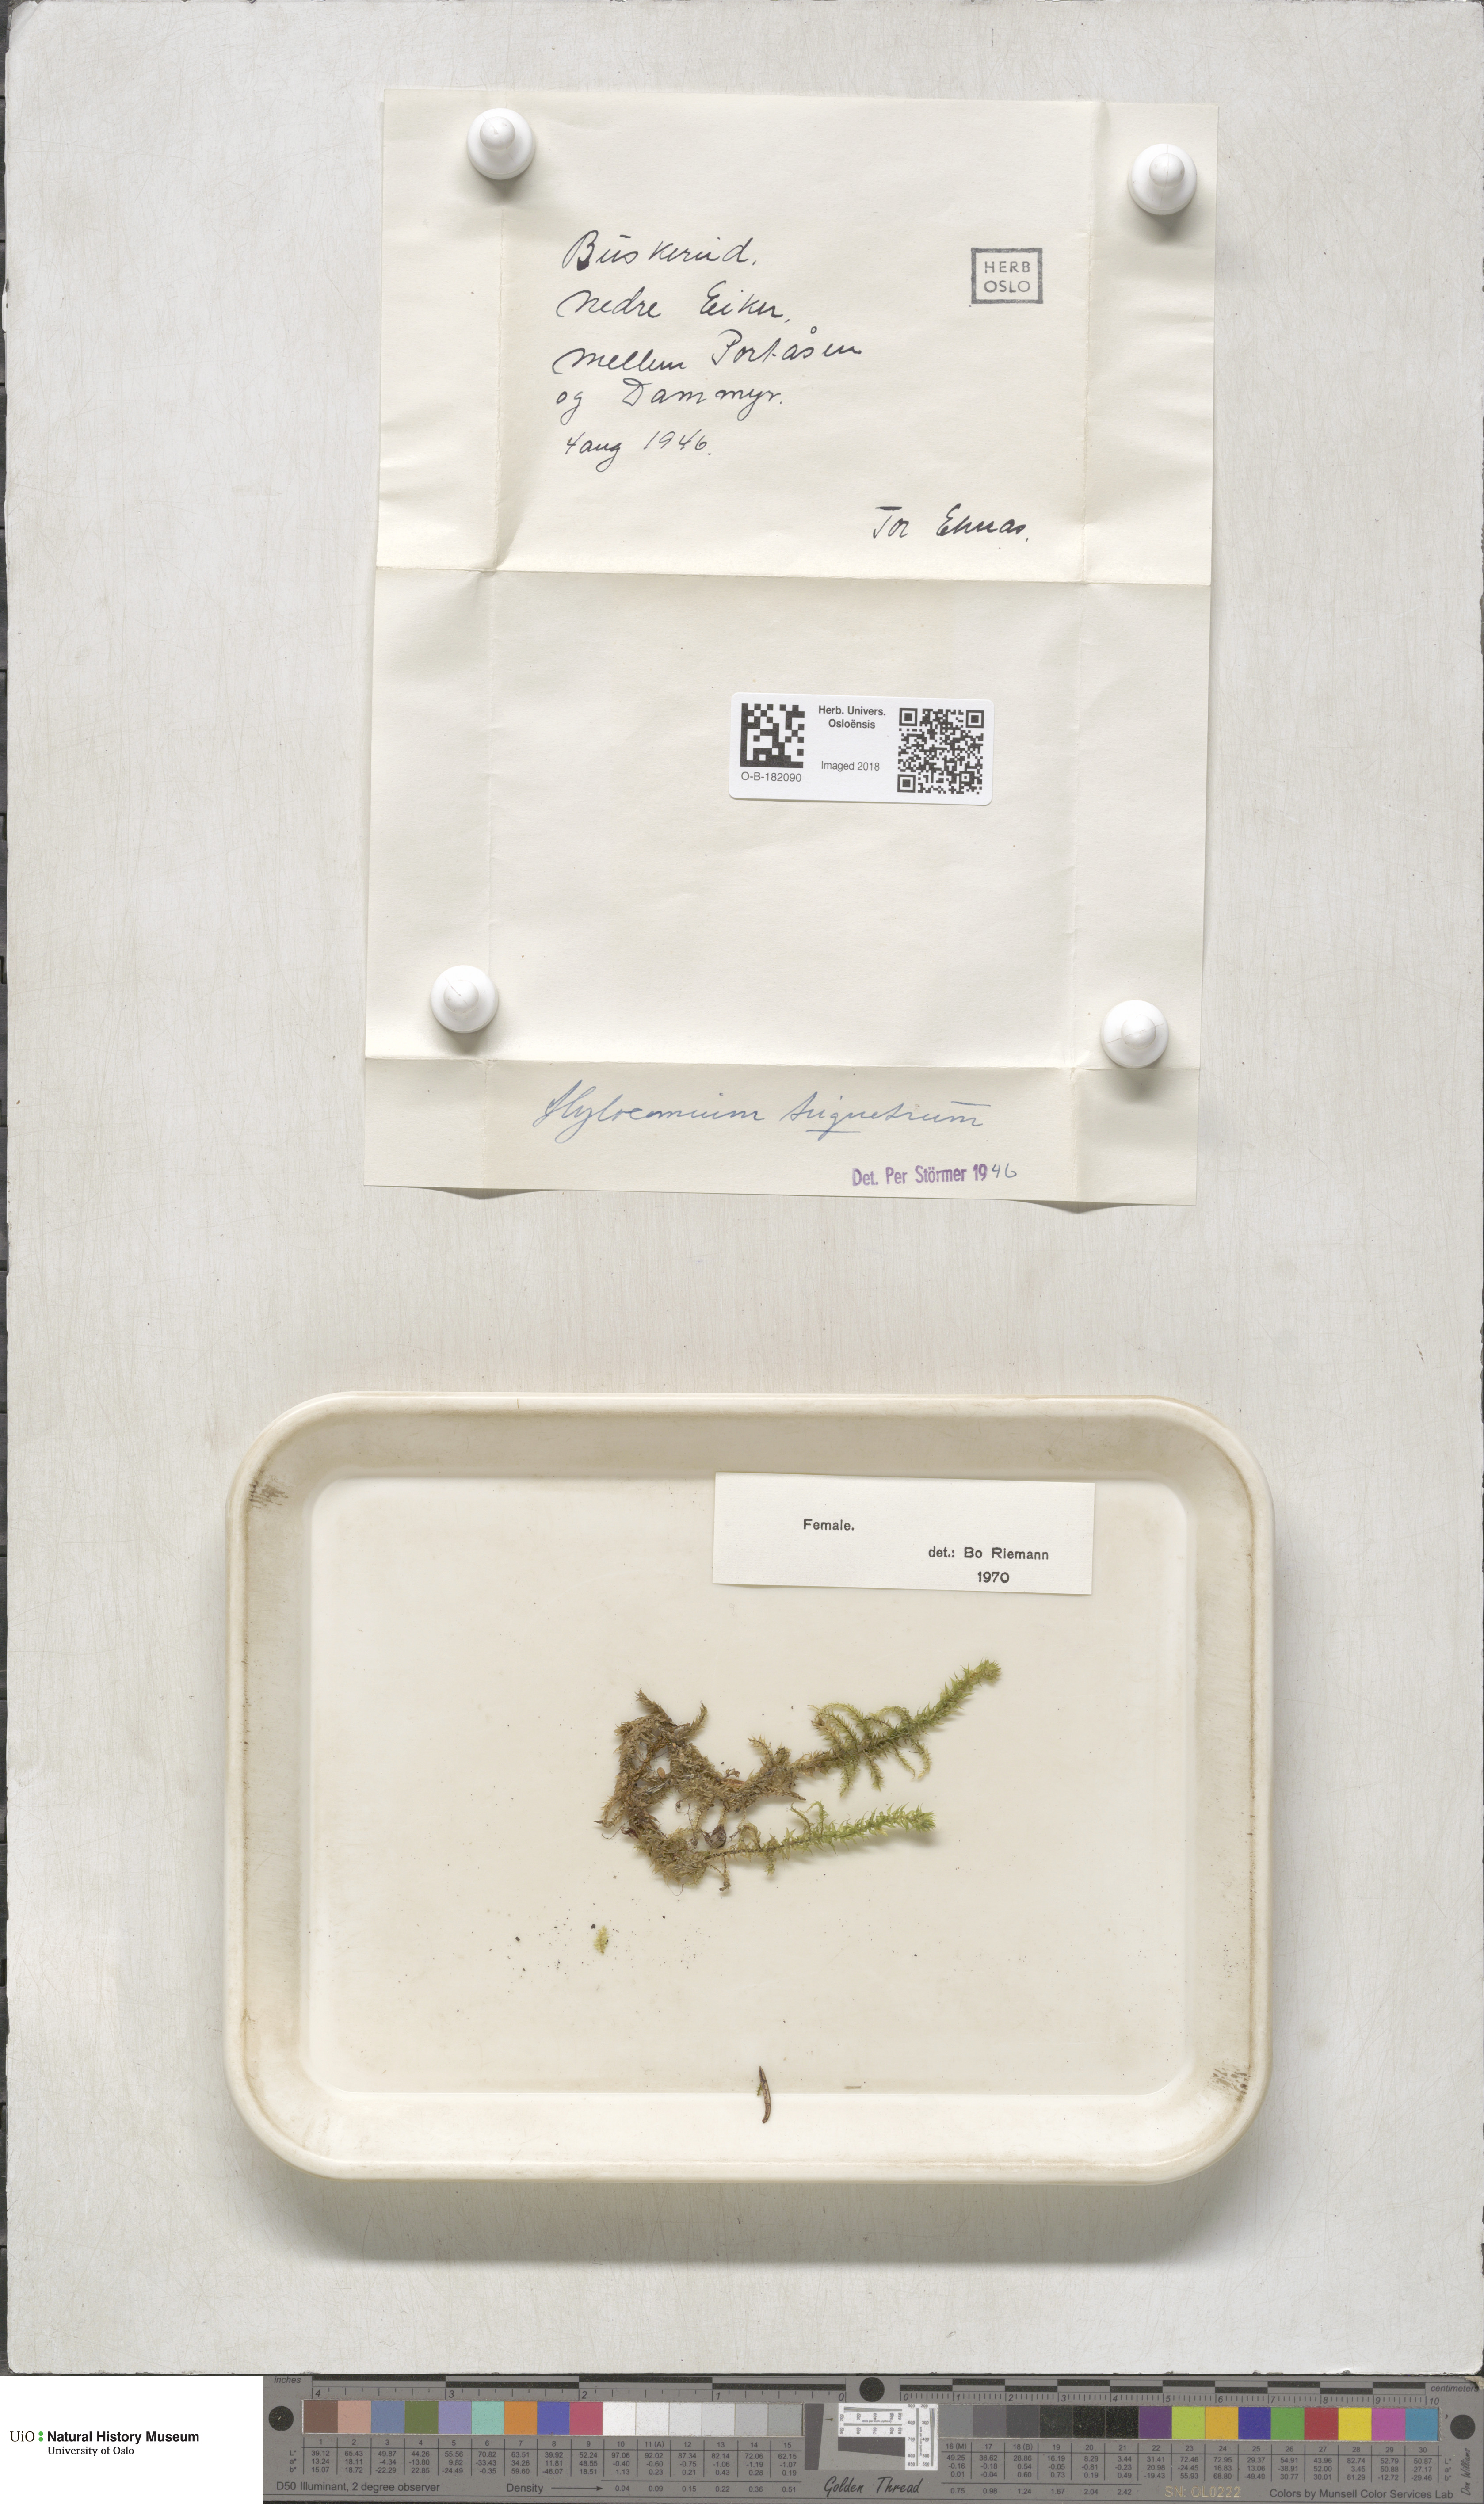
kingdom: Plantae
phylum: Bryophyta
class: Bryopsida
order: Hypnales
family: Hylocomiaceae
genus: Hylocomiadelphus
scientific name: Hylocomiadelphus triquetrus
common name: Rough goose neck moss
